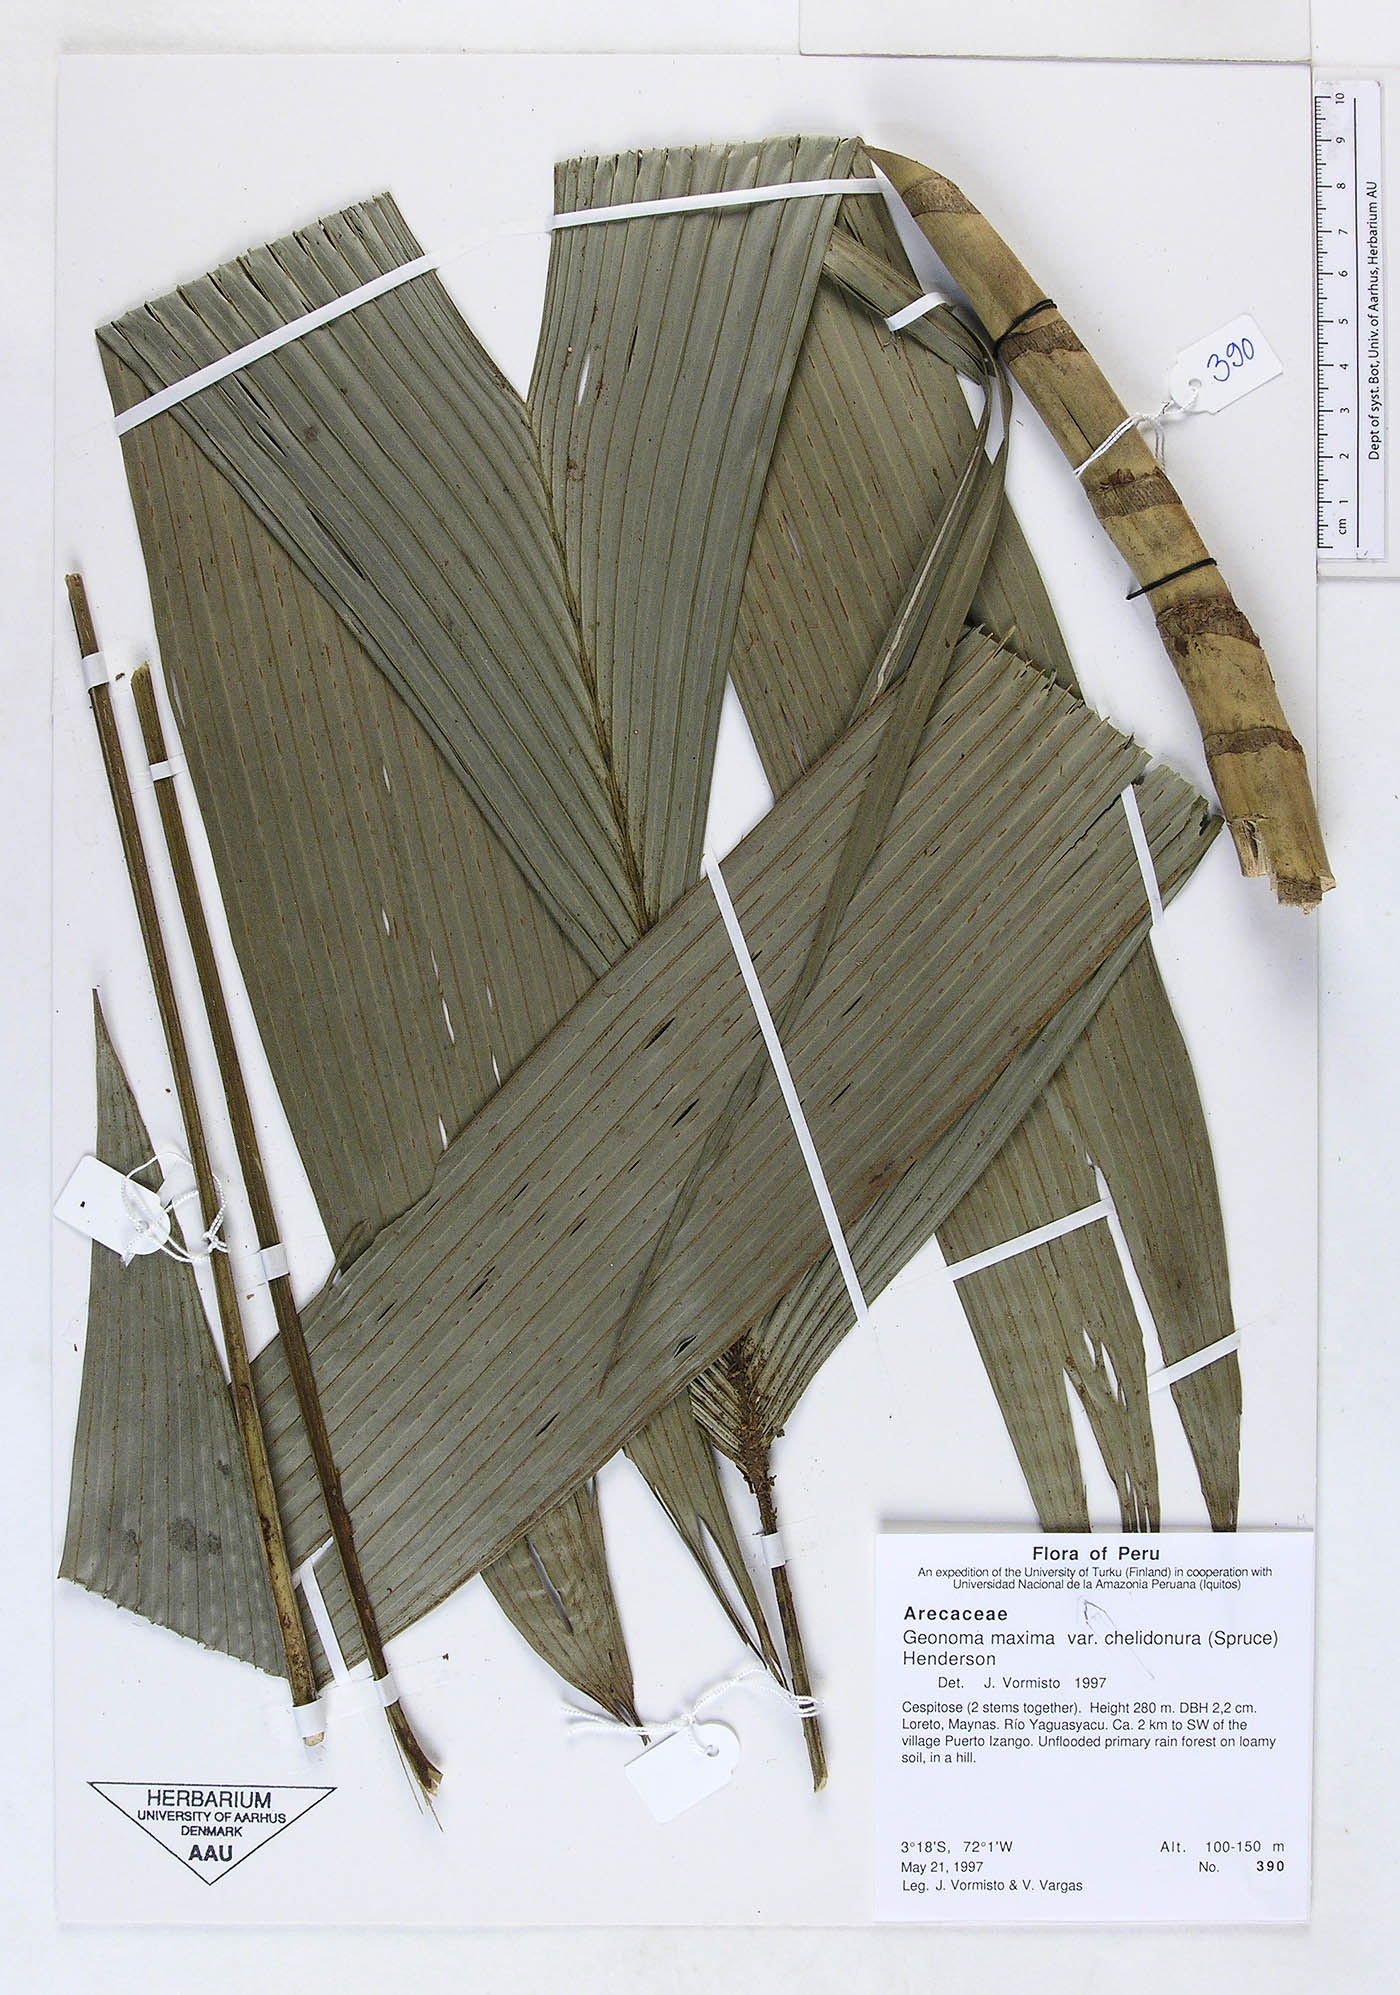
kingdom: Plantae
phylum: Tracheophyta
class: Liliopsida
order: Arecales
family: Arecaceae
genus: Geonoma
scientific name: Geonoma maxima
